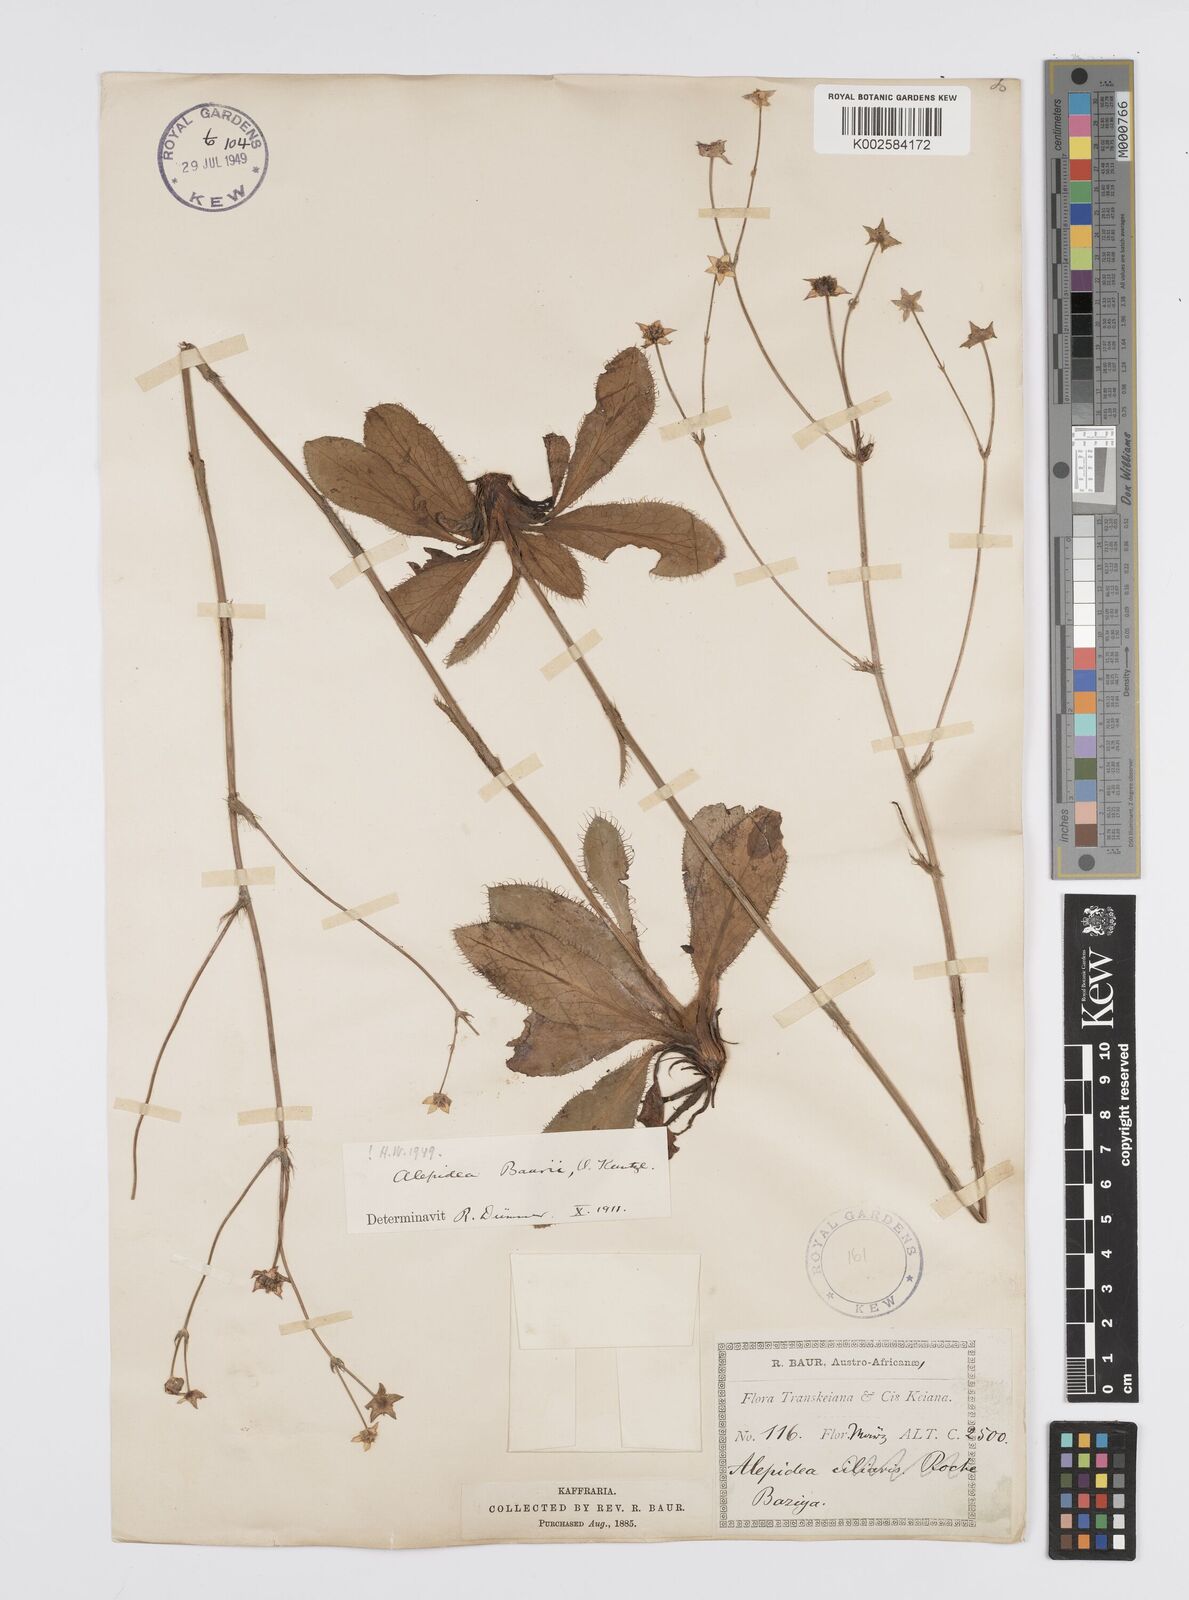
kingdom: Plantae
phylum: Tracheophyta
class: Magnoliopsida
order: Apiales
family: Apiaceae
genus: Alepidea
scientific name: Alepidea natalensis
